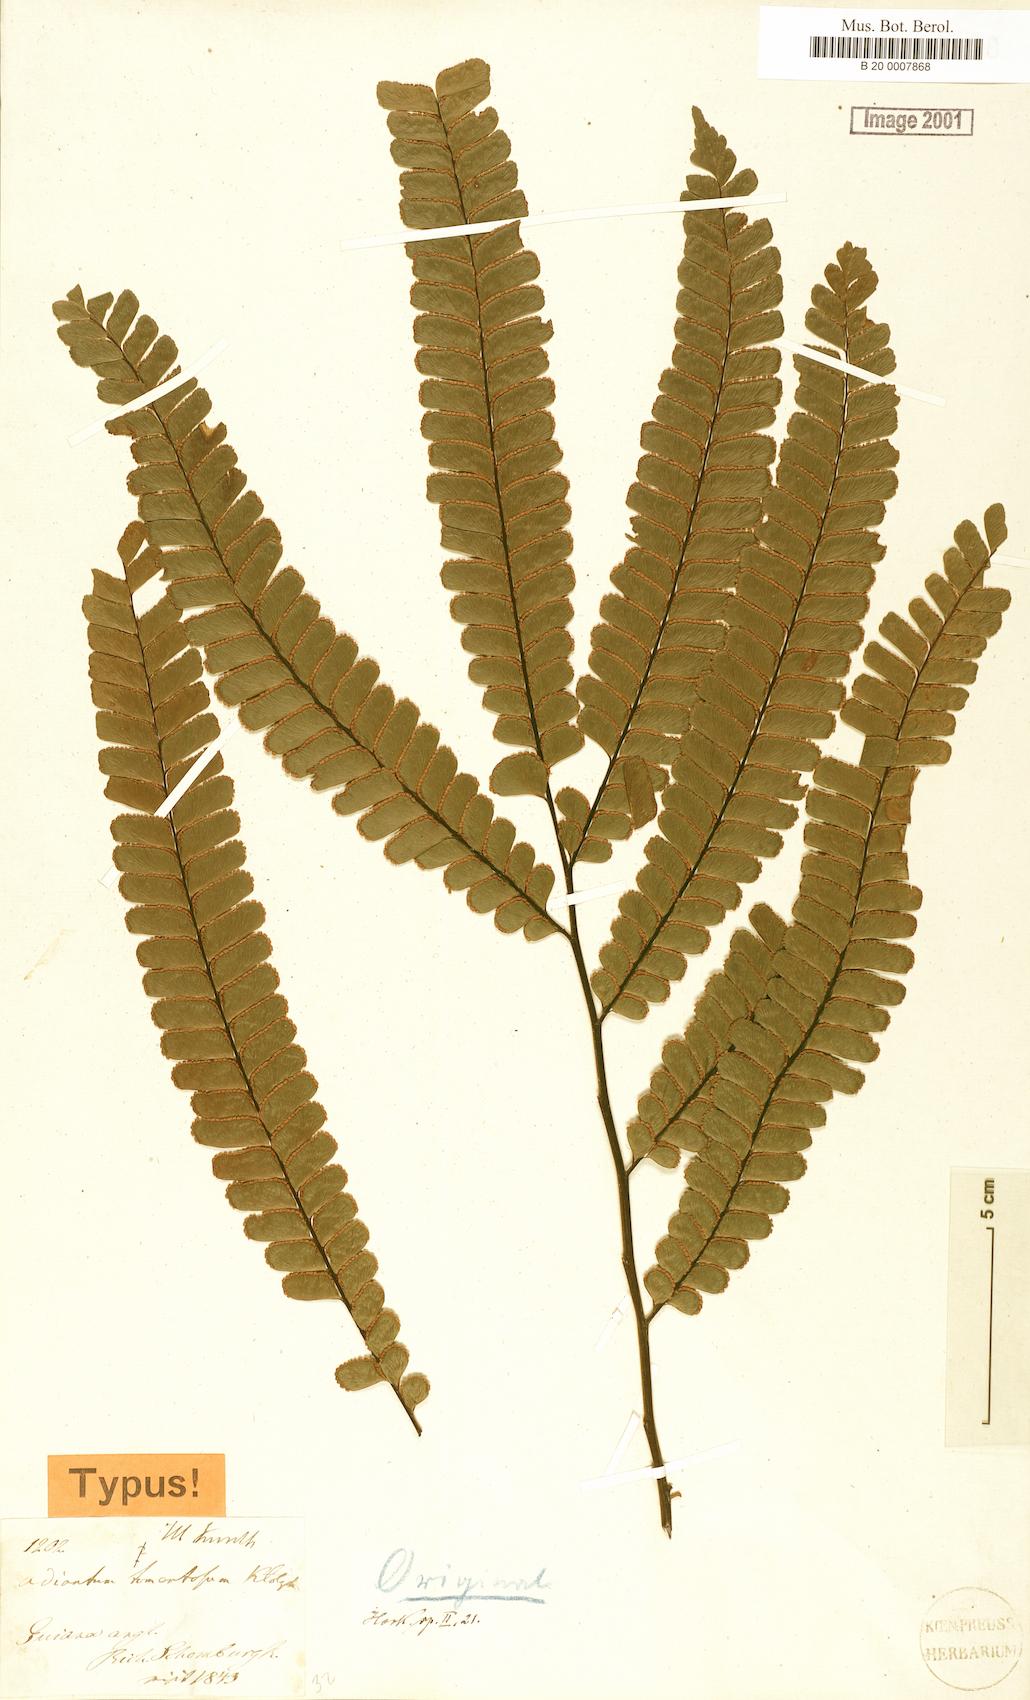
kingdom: Plantae
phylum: Tracheophyta
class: Polypodiopsida
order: Polypodiales
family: Pteridaceae
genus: Adiantum
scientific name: Adiantum tomentosum
